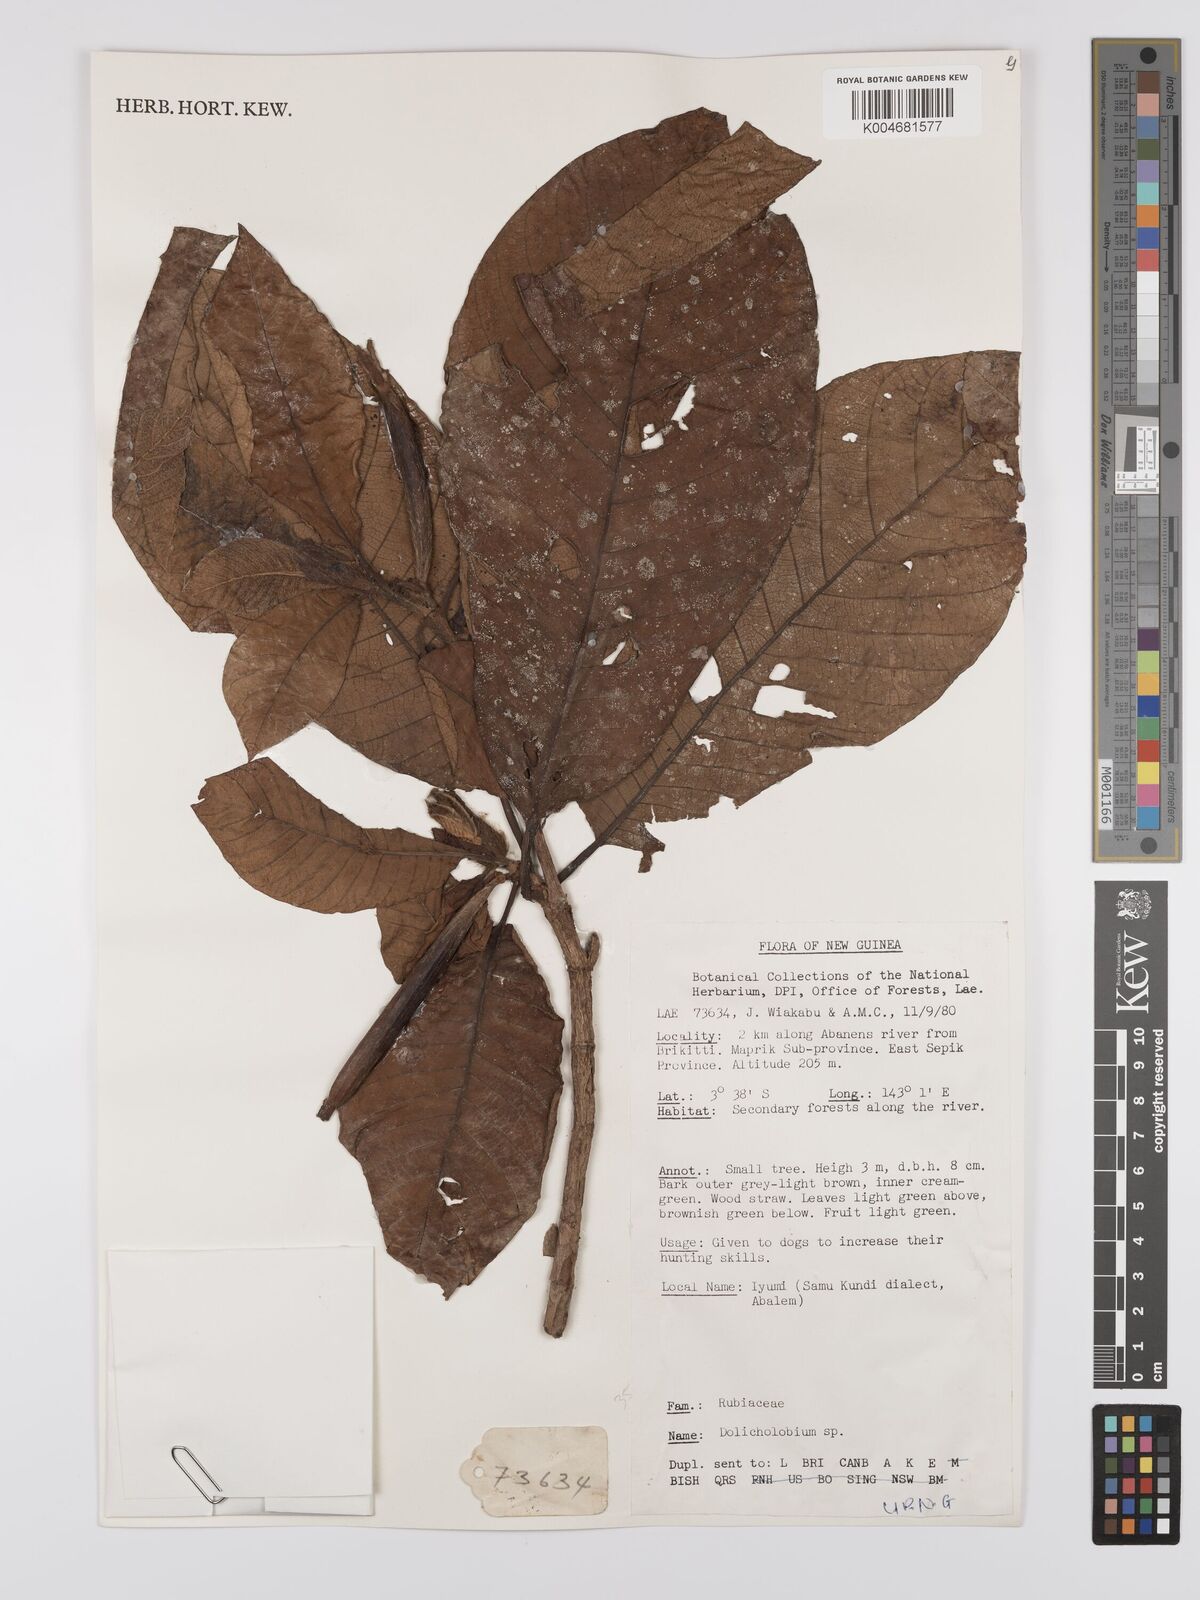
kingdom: Plantae
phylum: Tracheophyta
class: Magnoliopsida
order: Gentianales
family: Rubiaceae
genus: Dolicholobium
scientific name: Dolicholobium
